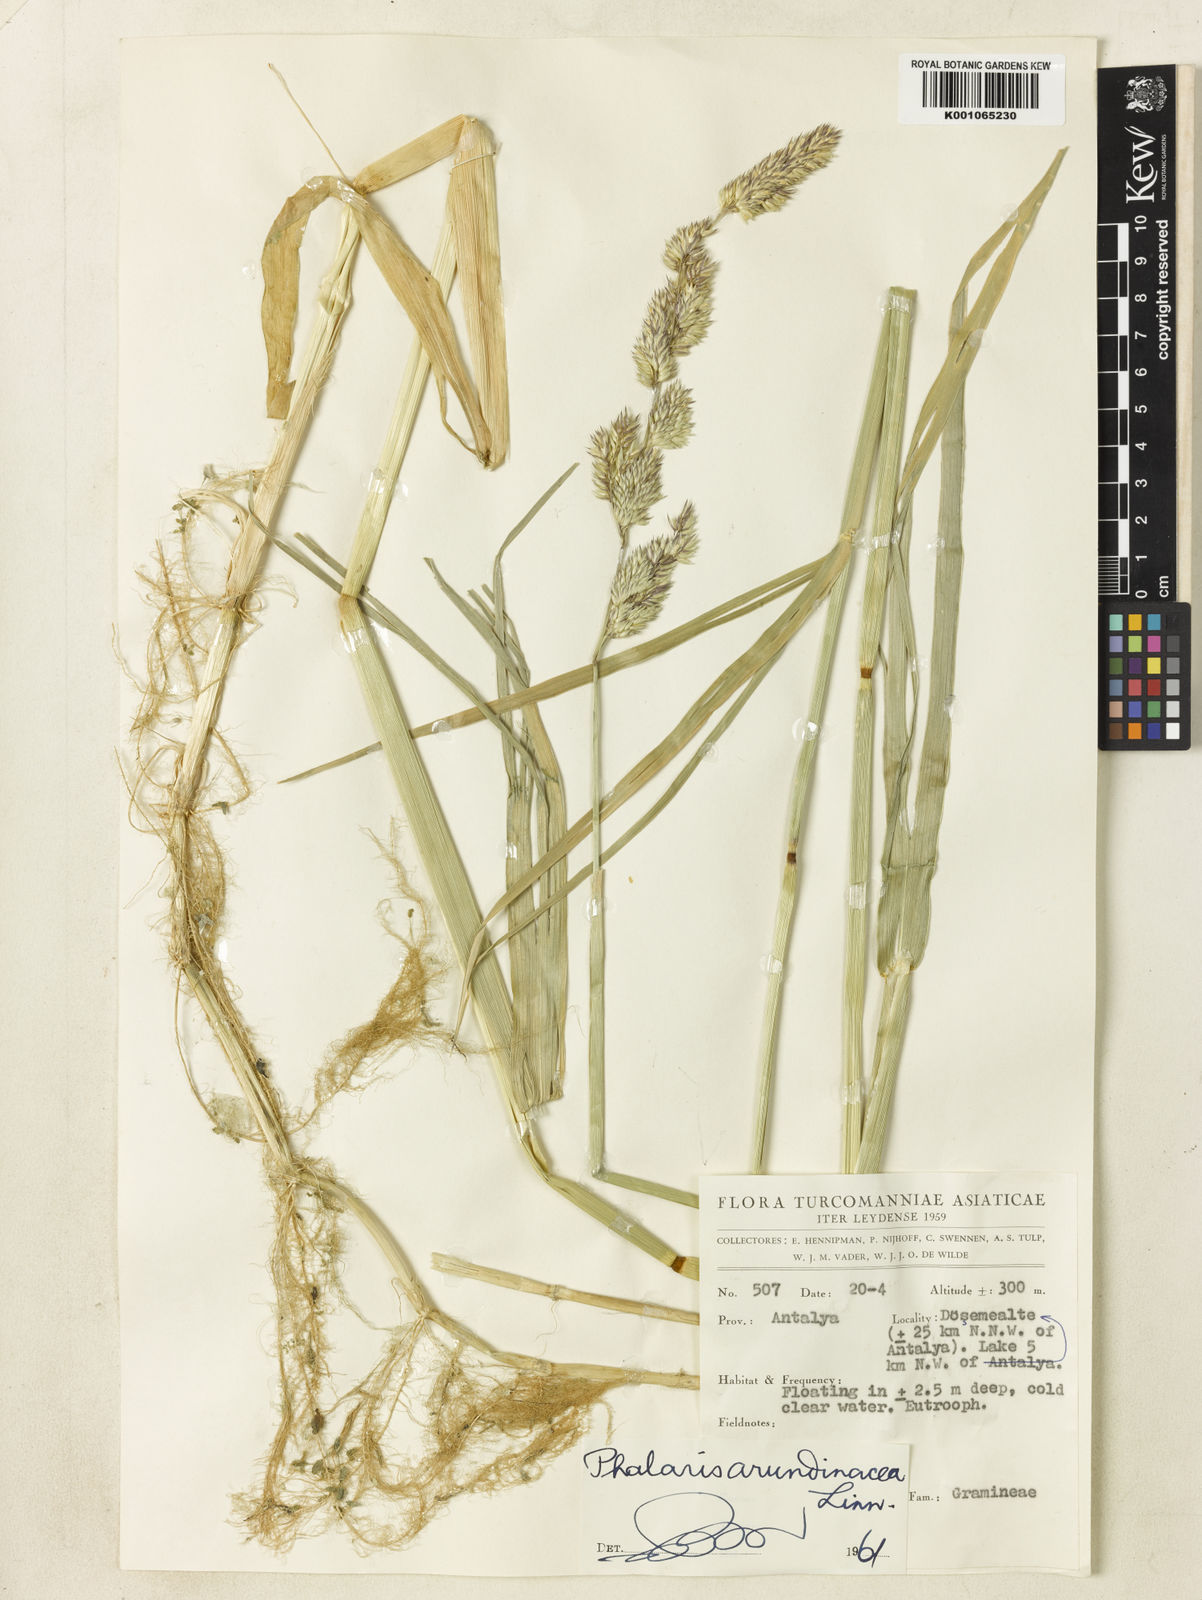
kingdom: Plantae
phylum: Tracheophyta
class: Liliopsida
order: Poales
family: Poaceae
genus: Phalaris
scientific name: Phalaris arundinacea
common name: Reed canary-grass
